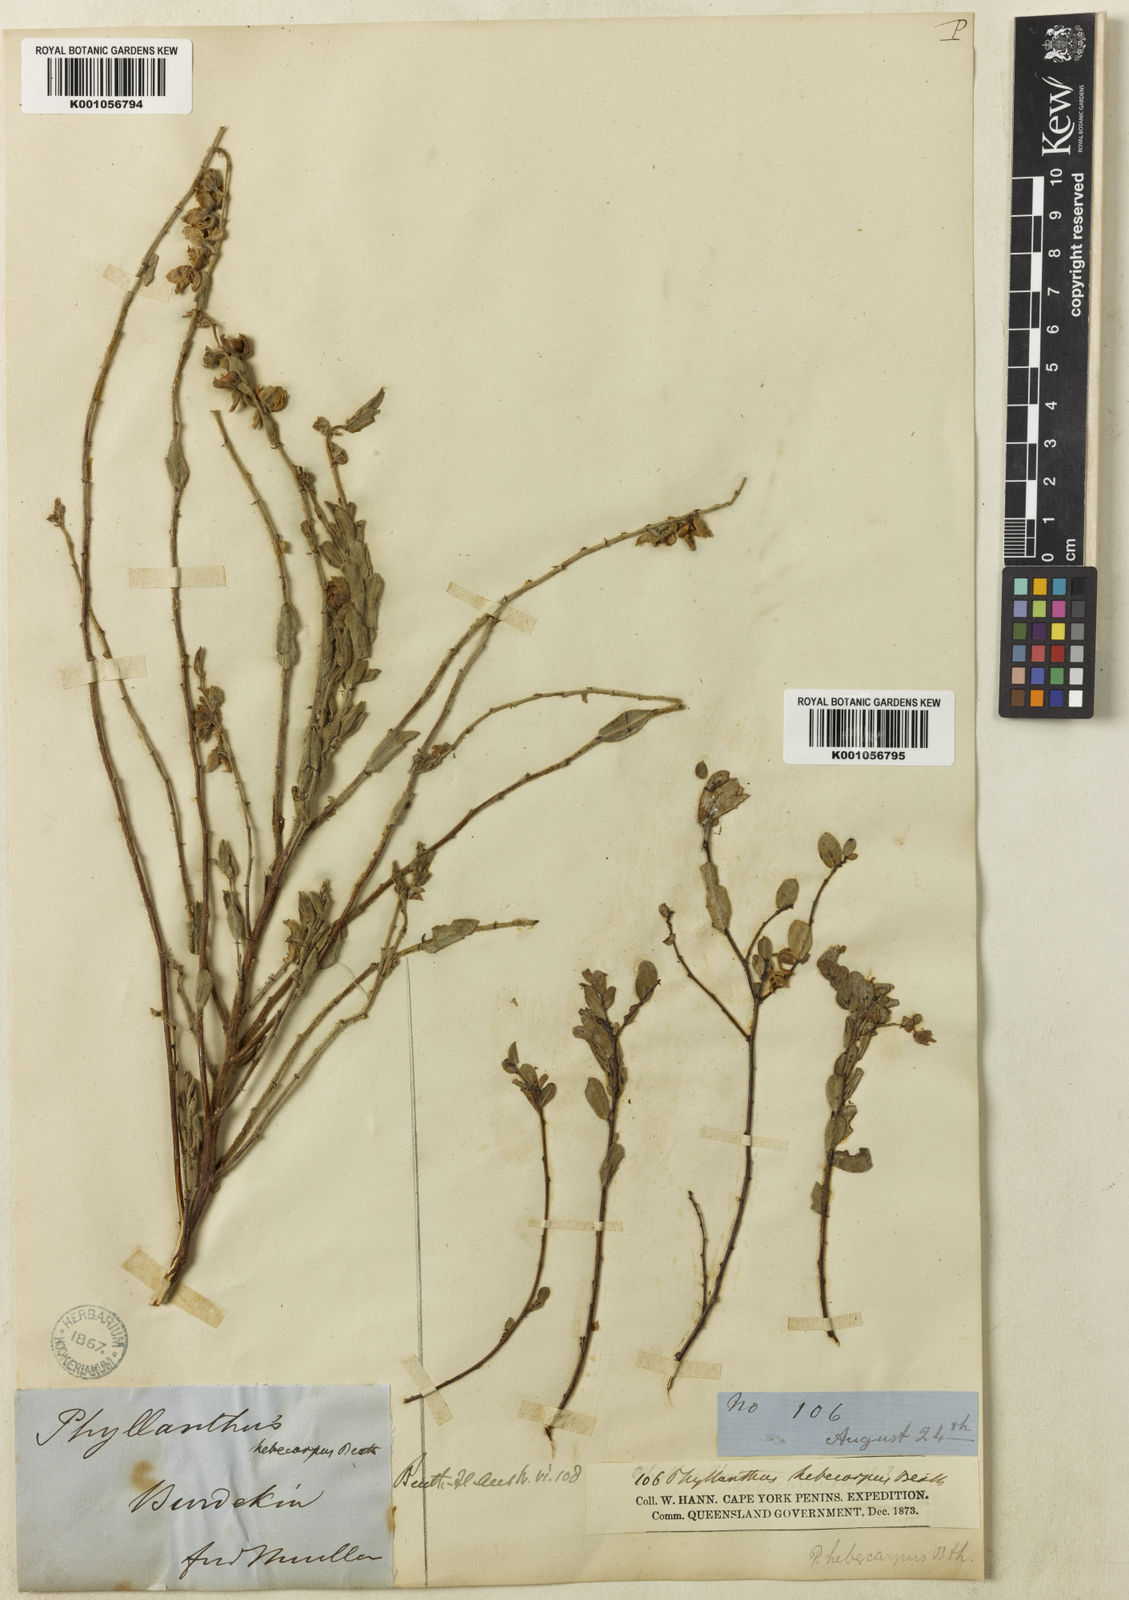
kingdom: Plantae
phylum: Tracheophyta
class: Magnoliopsida
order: Malpighiales
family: Phyllanthaceae
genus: Phyllanthus
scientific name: Phyllanthus
